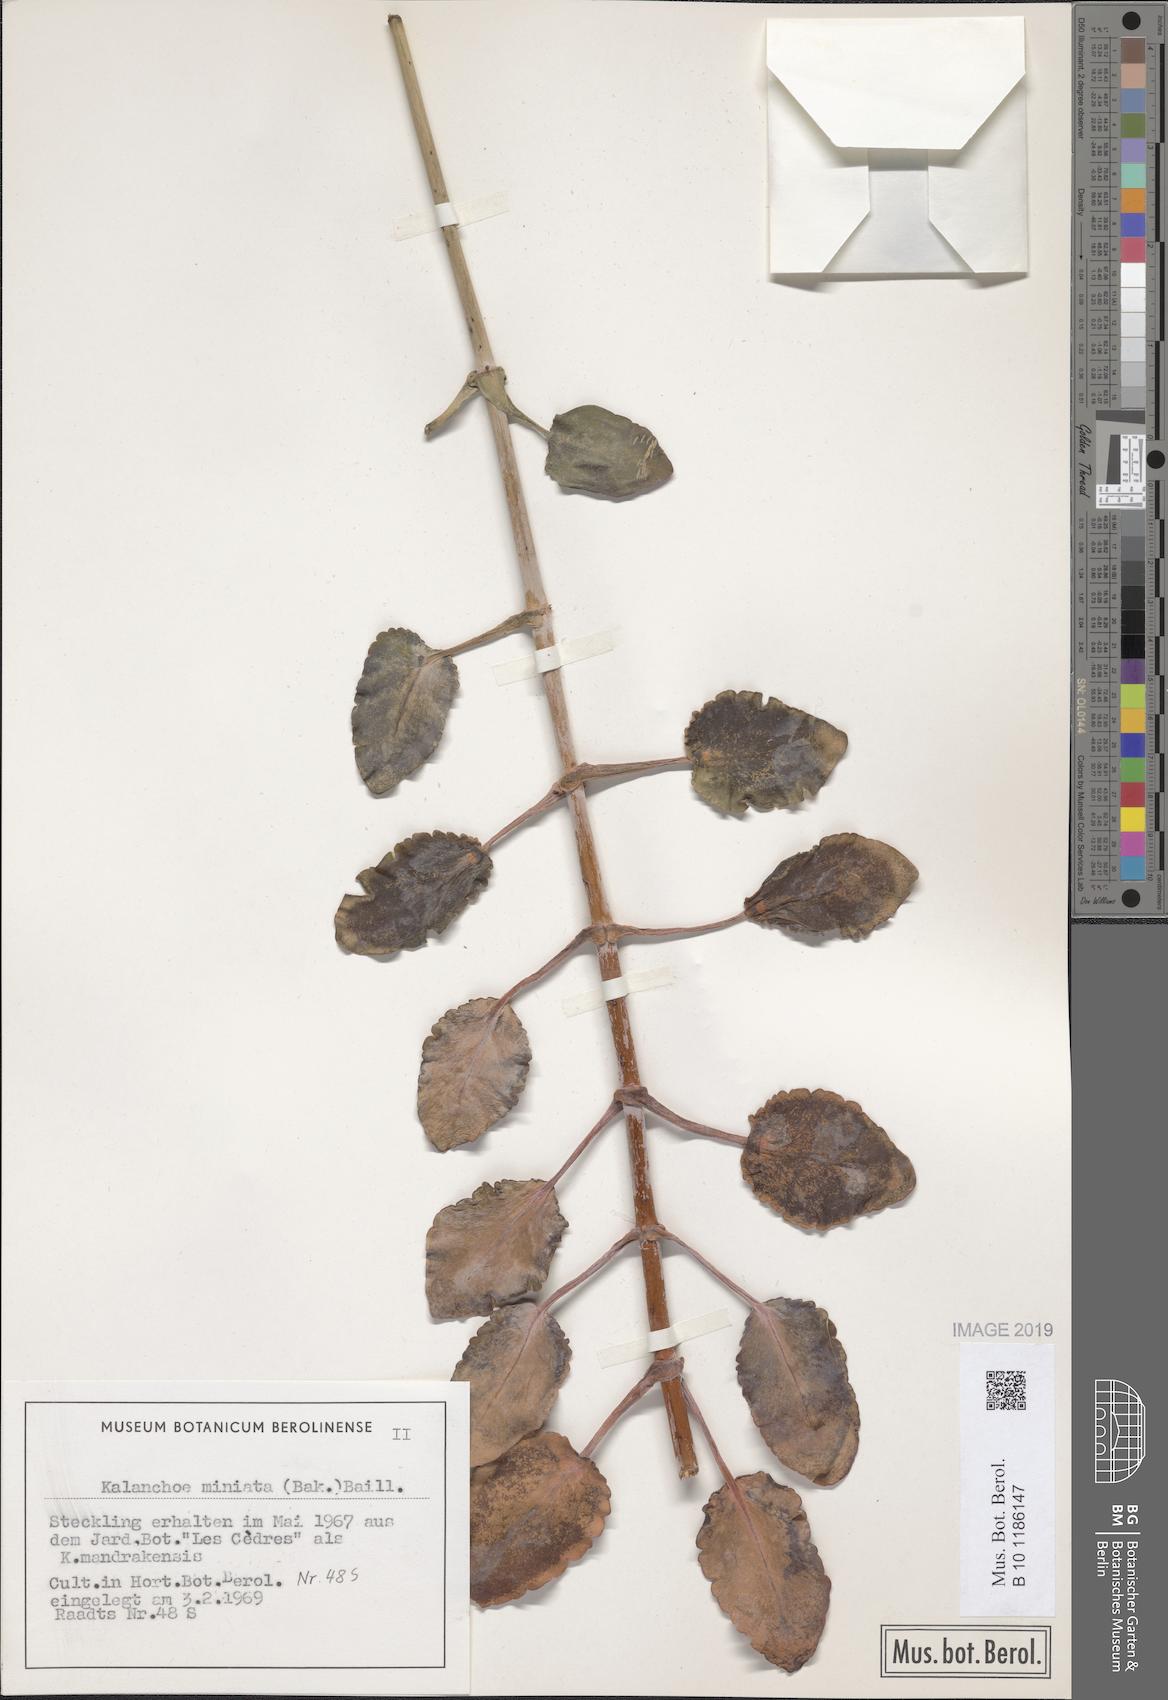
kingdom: Plantae
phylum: Tracheophyta
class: Magnoliopsida
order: Saxifragales
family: Crassulaceae
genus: Kalanchoe
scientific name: Kalanchoe miniata
